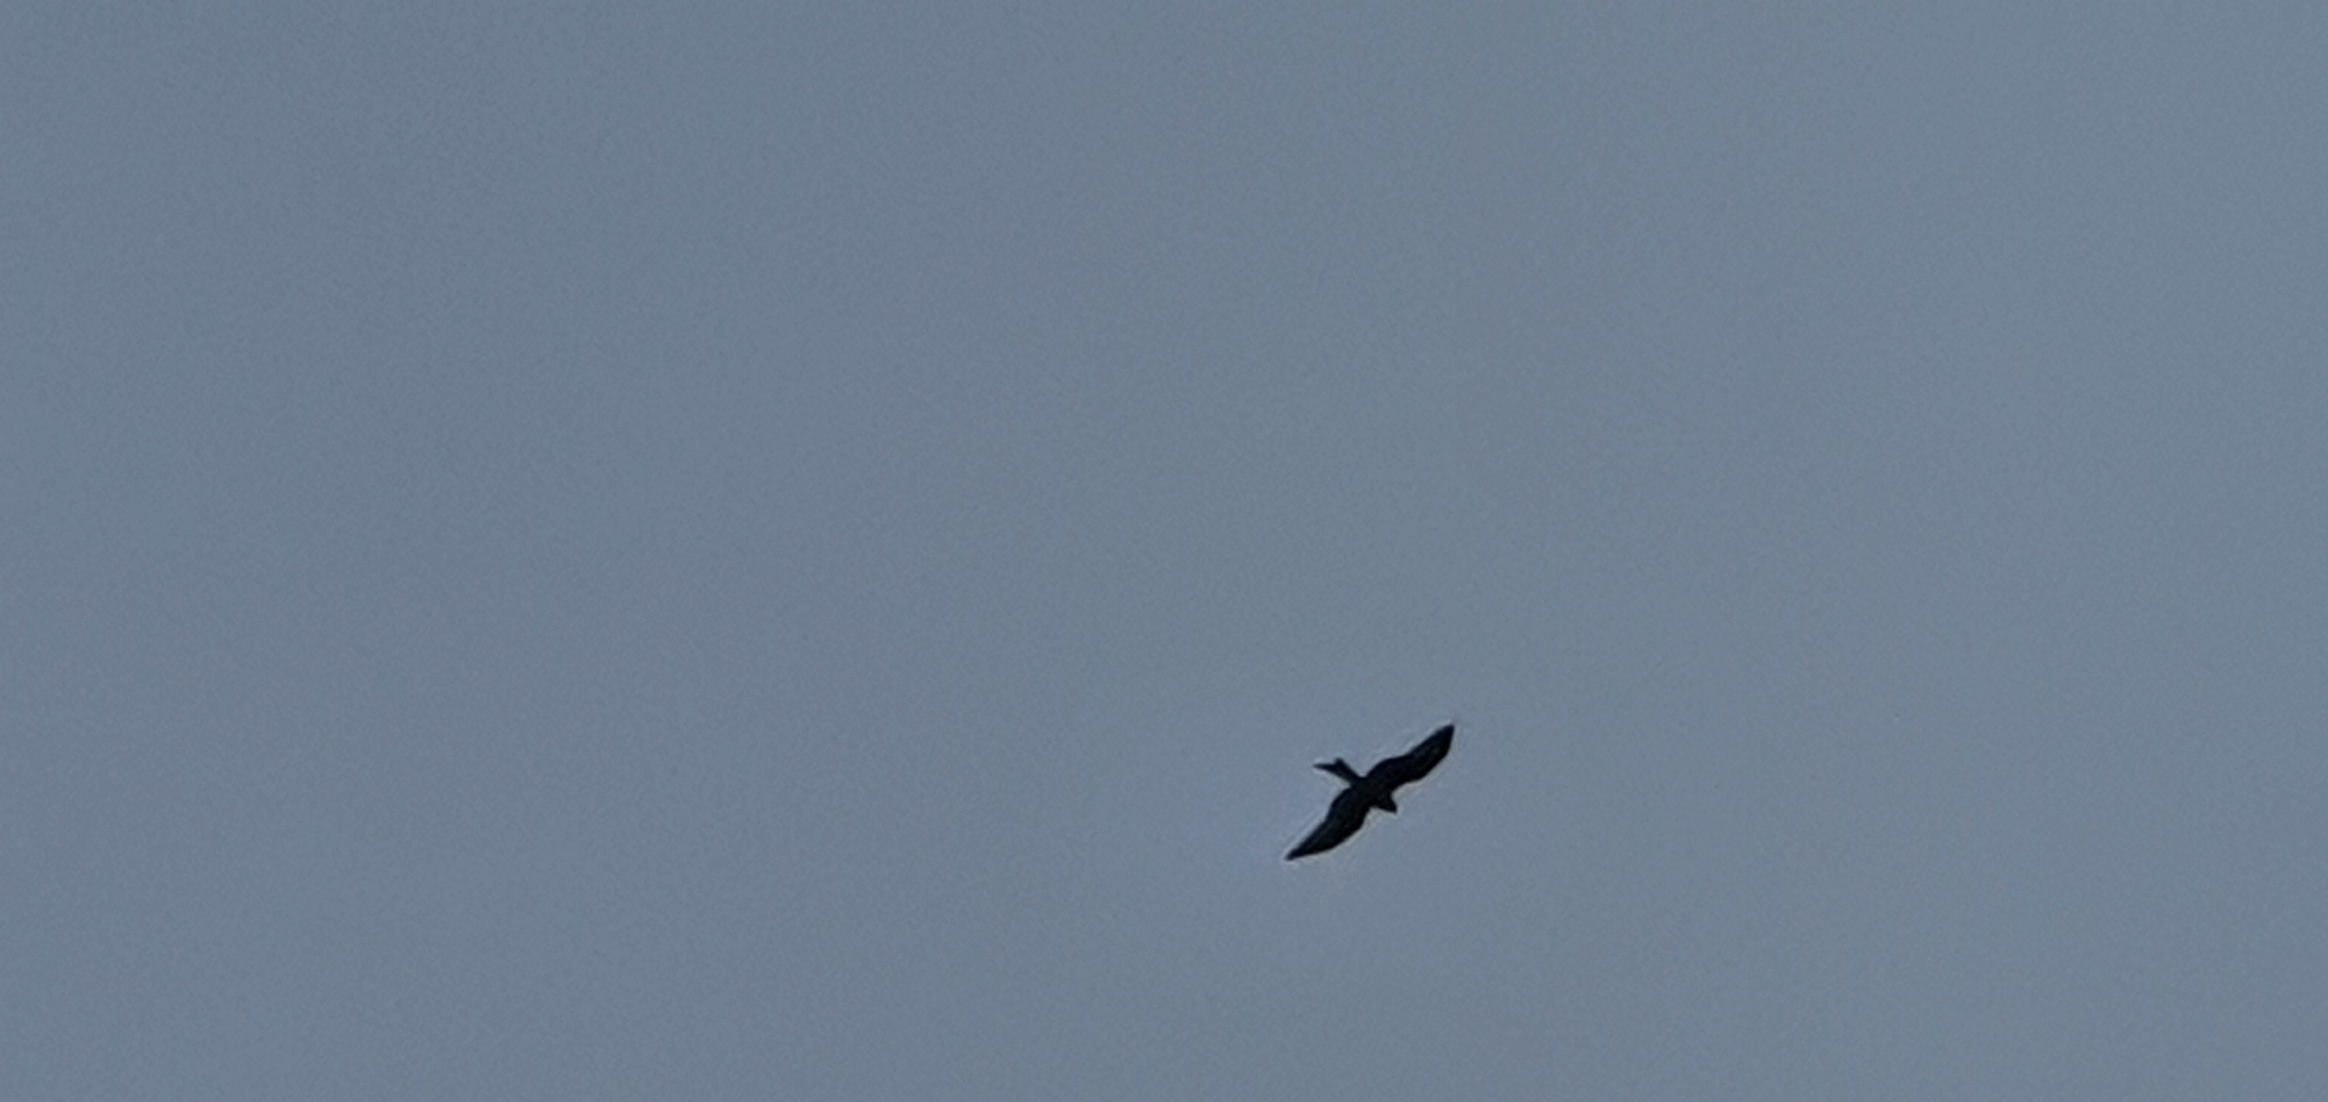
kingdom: Animalia
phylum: Chordata
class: Aves
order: Accipitriformes
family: Accipitridae
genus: Milvus
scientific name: Milvus milvus
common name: Rød glente
